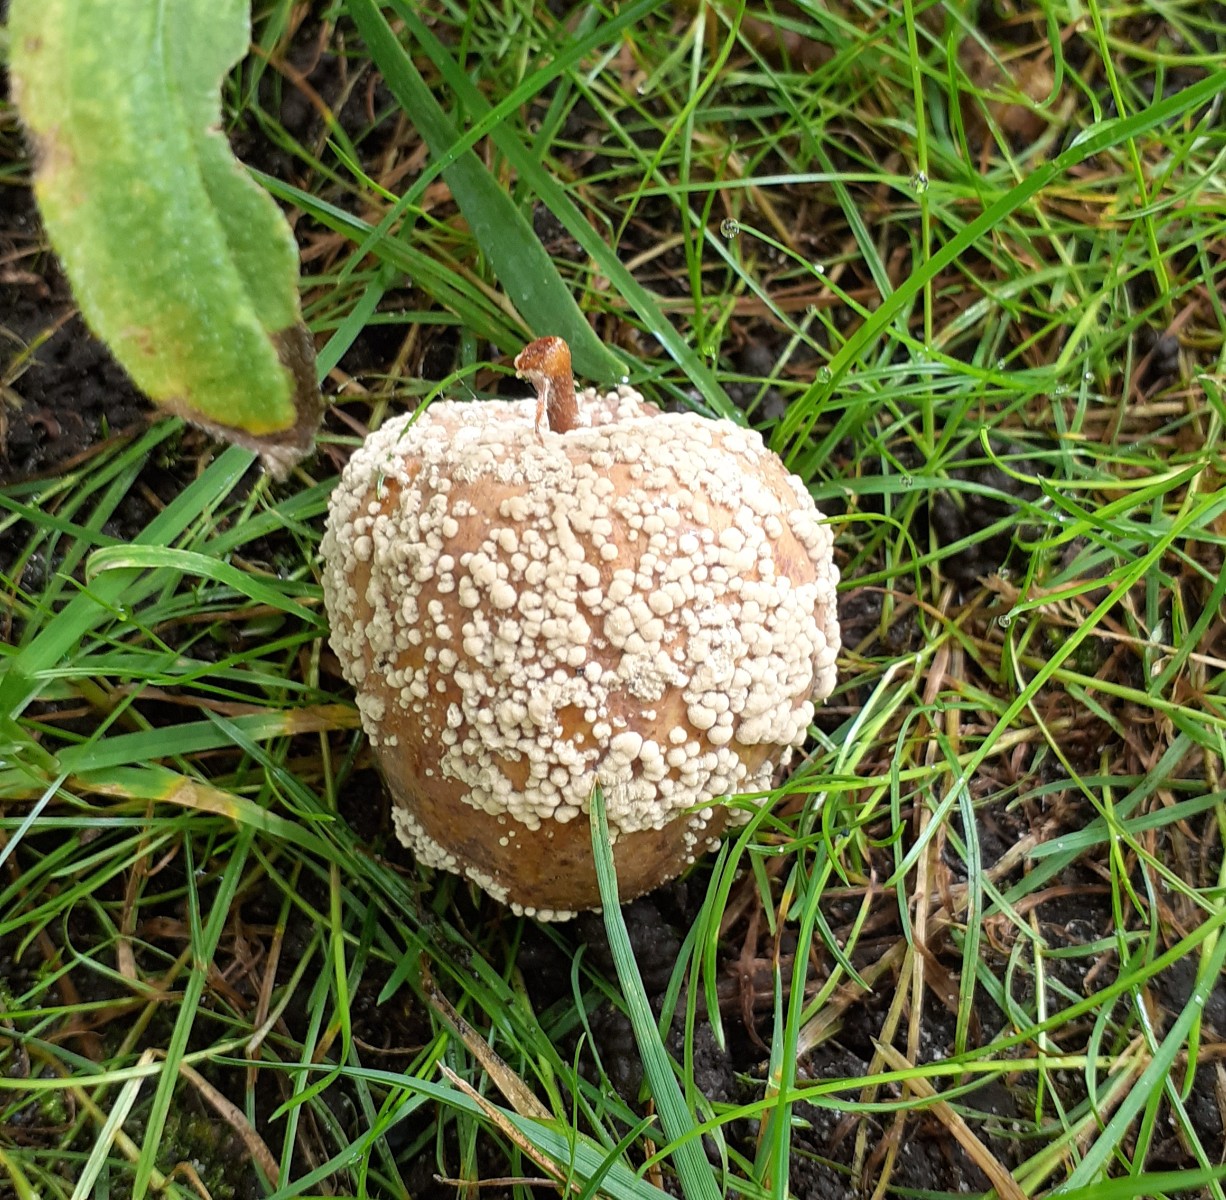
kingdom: Fungi
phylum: Ascomycota
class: Leotiomycetes
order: Helotiales
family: Sclerotiniaceae
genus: Monilinia
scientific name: Monilinia fructigena
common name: æble-knoldskive
